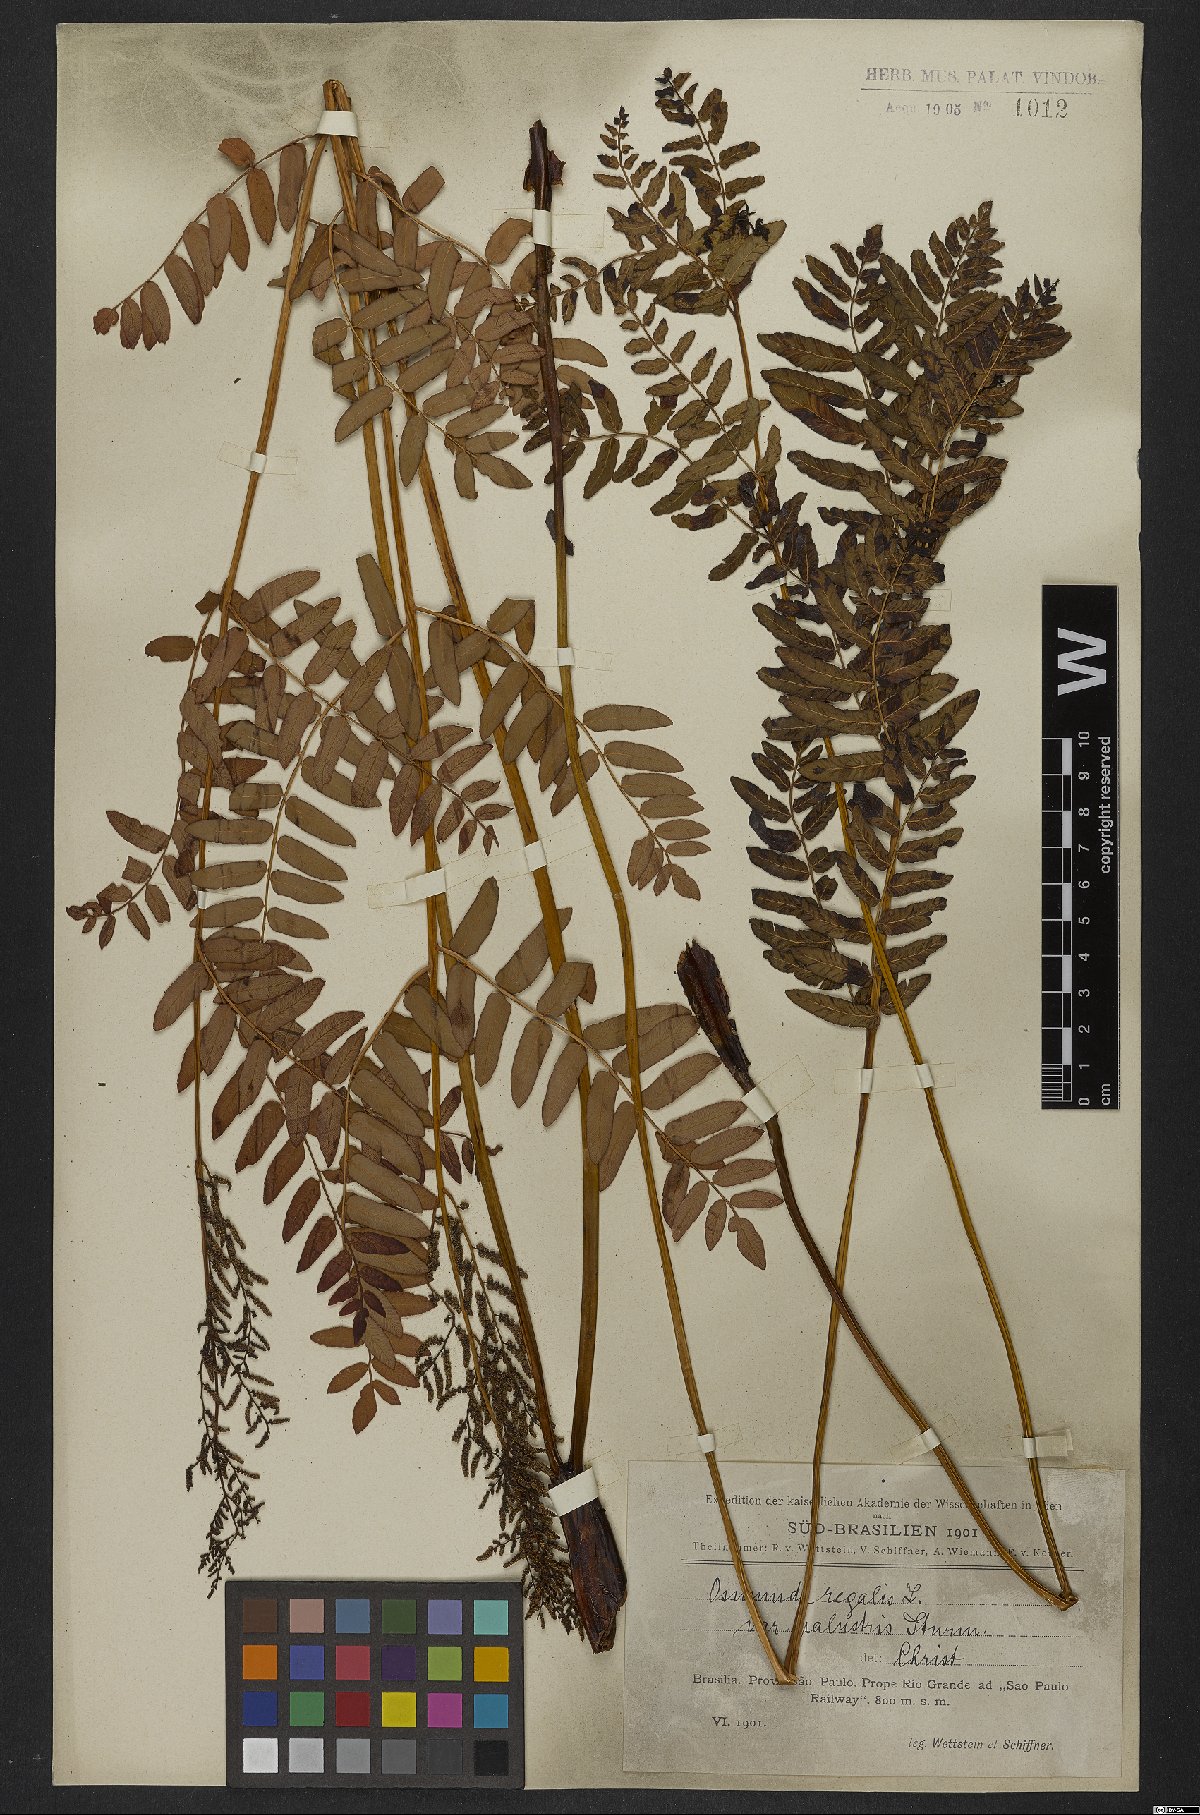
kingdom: Plantae
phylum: Tracheophyta
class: Polypodiopsida
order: Osmundales
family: Osmundaceae
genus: Osmunda
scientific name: Osmunda regalis
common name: Royal fern
